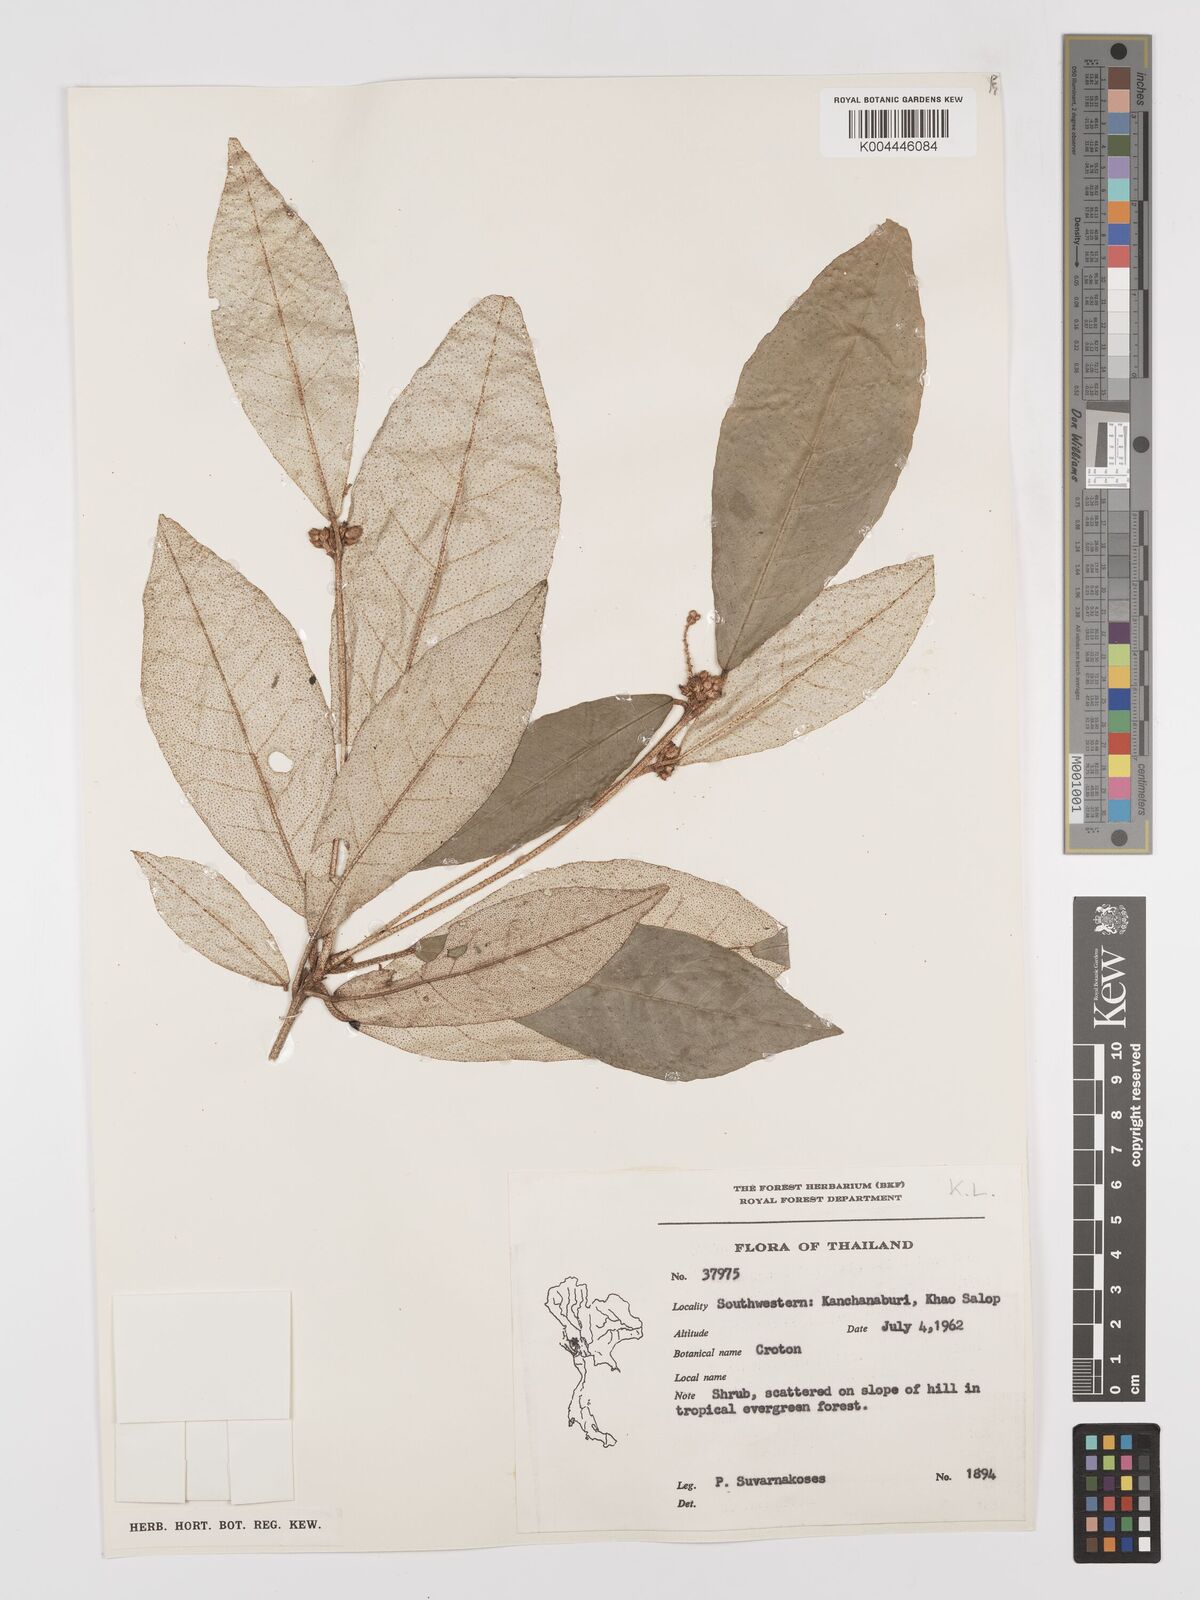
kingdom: Plantae
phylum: Tracheophyta
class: Magnoliopsida
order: Malpighiales
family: Euphorbiaceae
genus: Croton
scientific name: Croton cascarilloides
